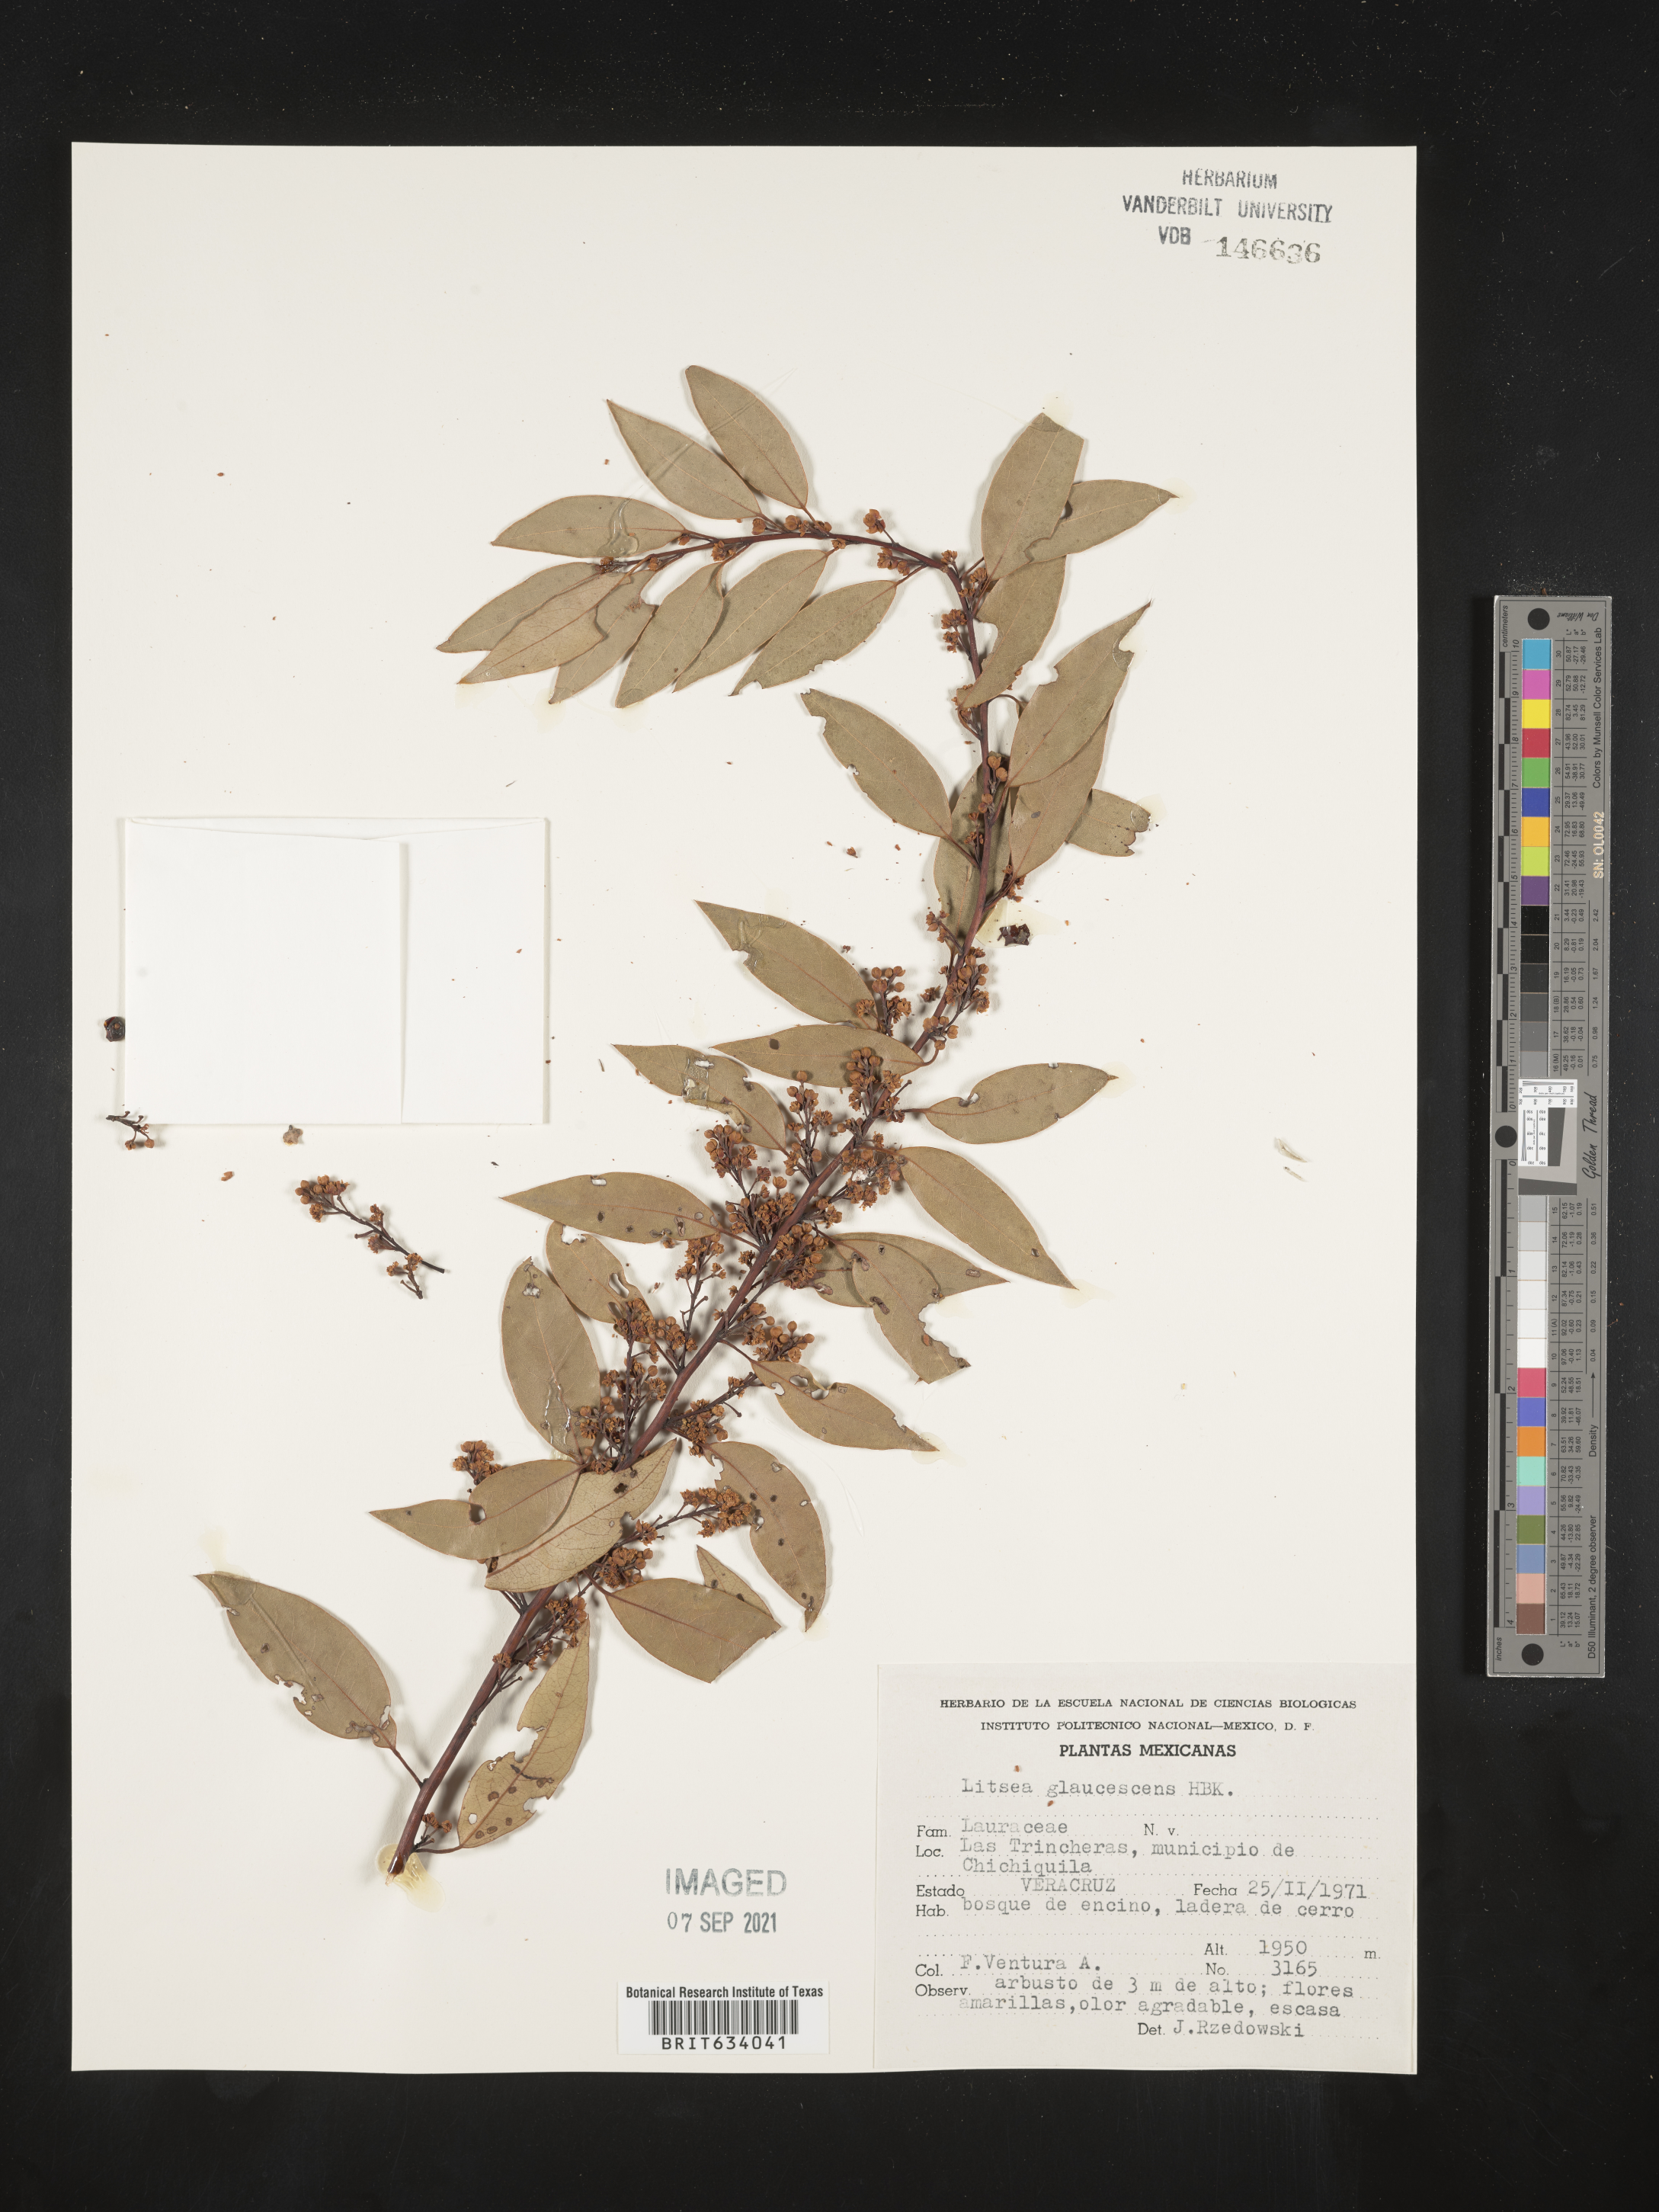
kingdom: Plantae
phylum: Tracheophyta
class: Magnoliopsida
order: Laurales
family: Lauraceae
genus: Litsea
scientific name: Litsea
